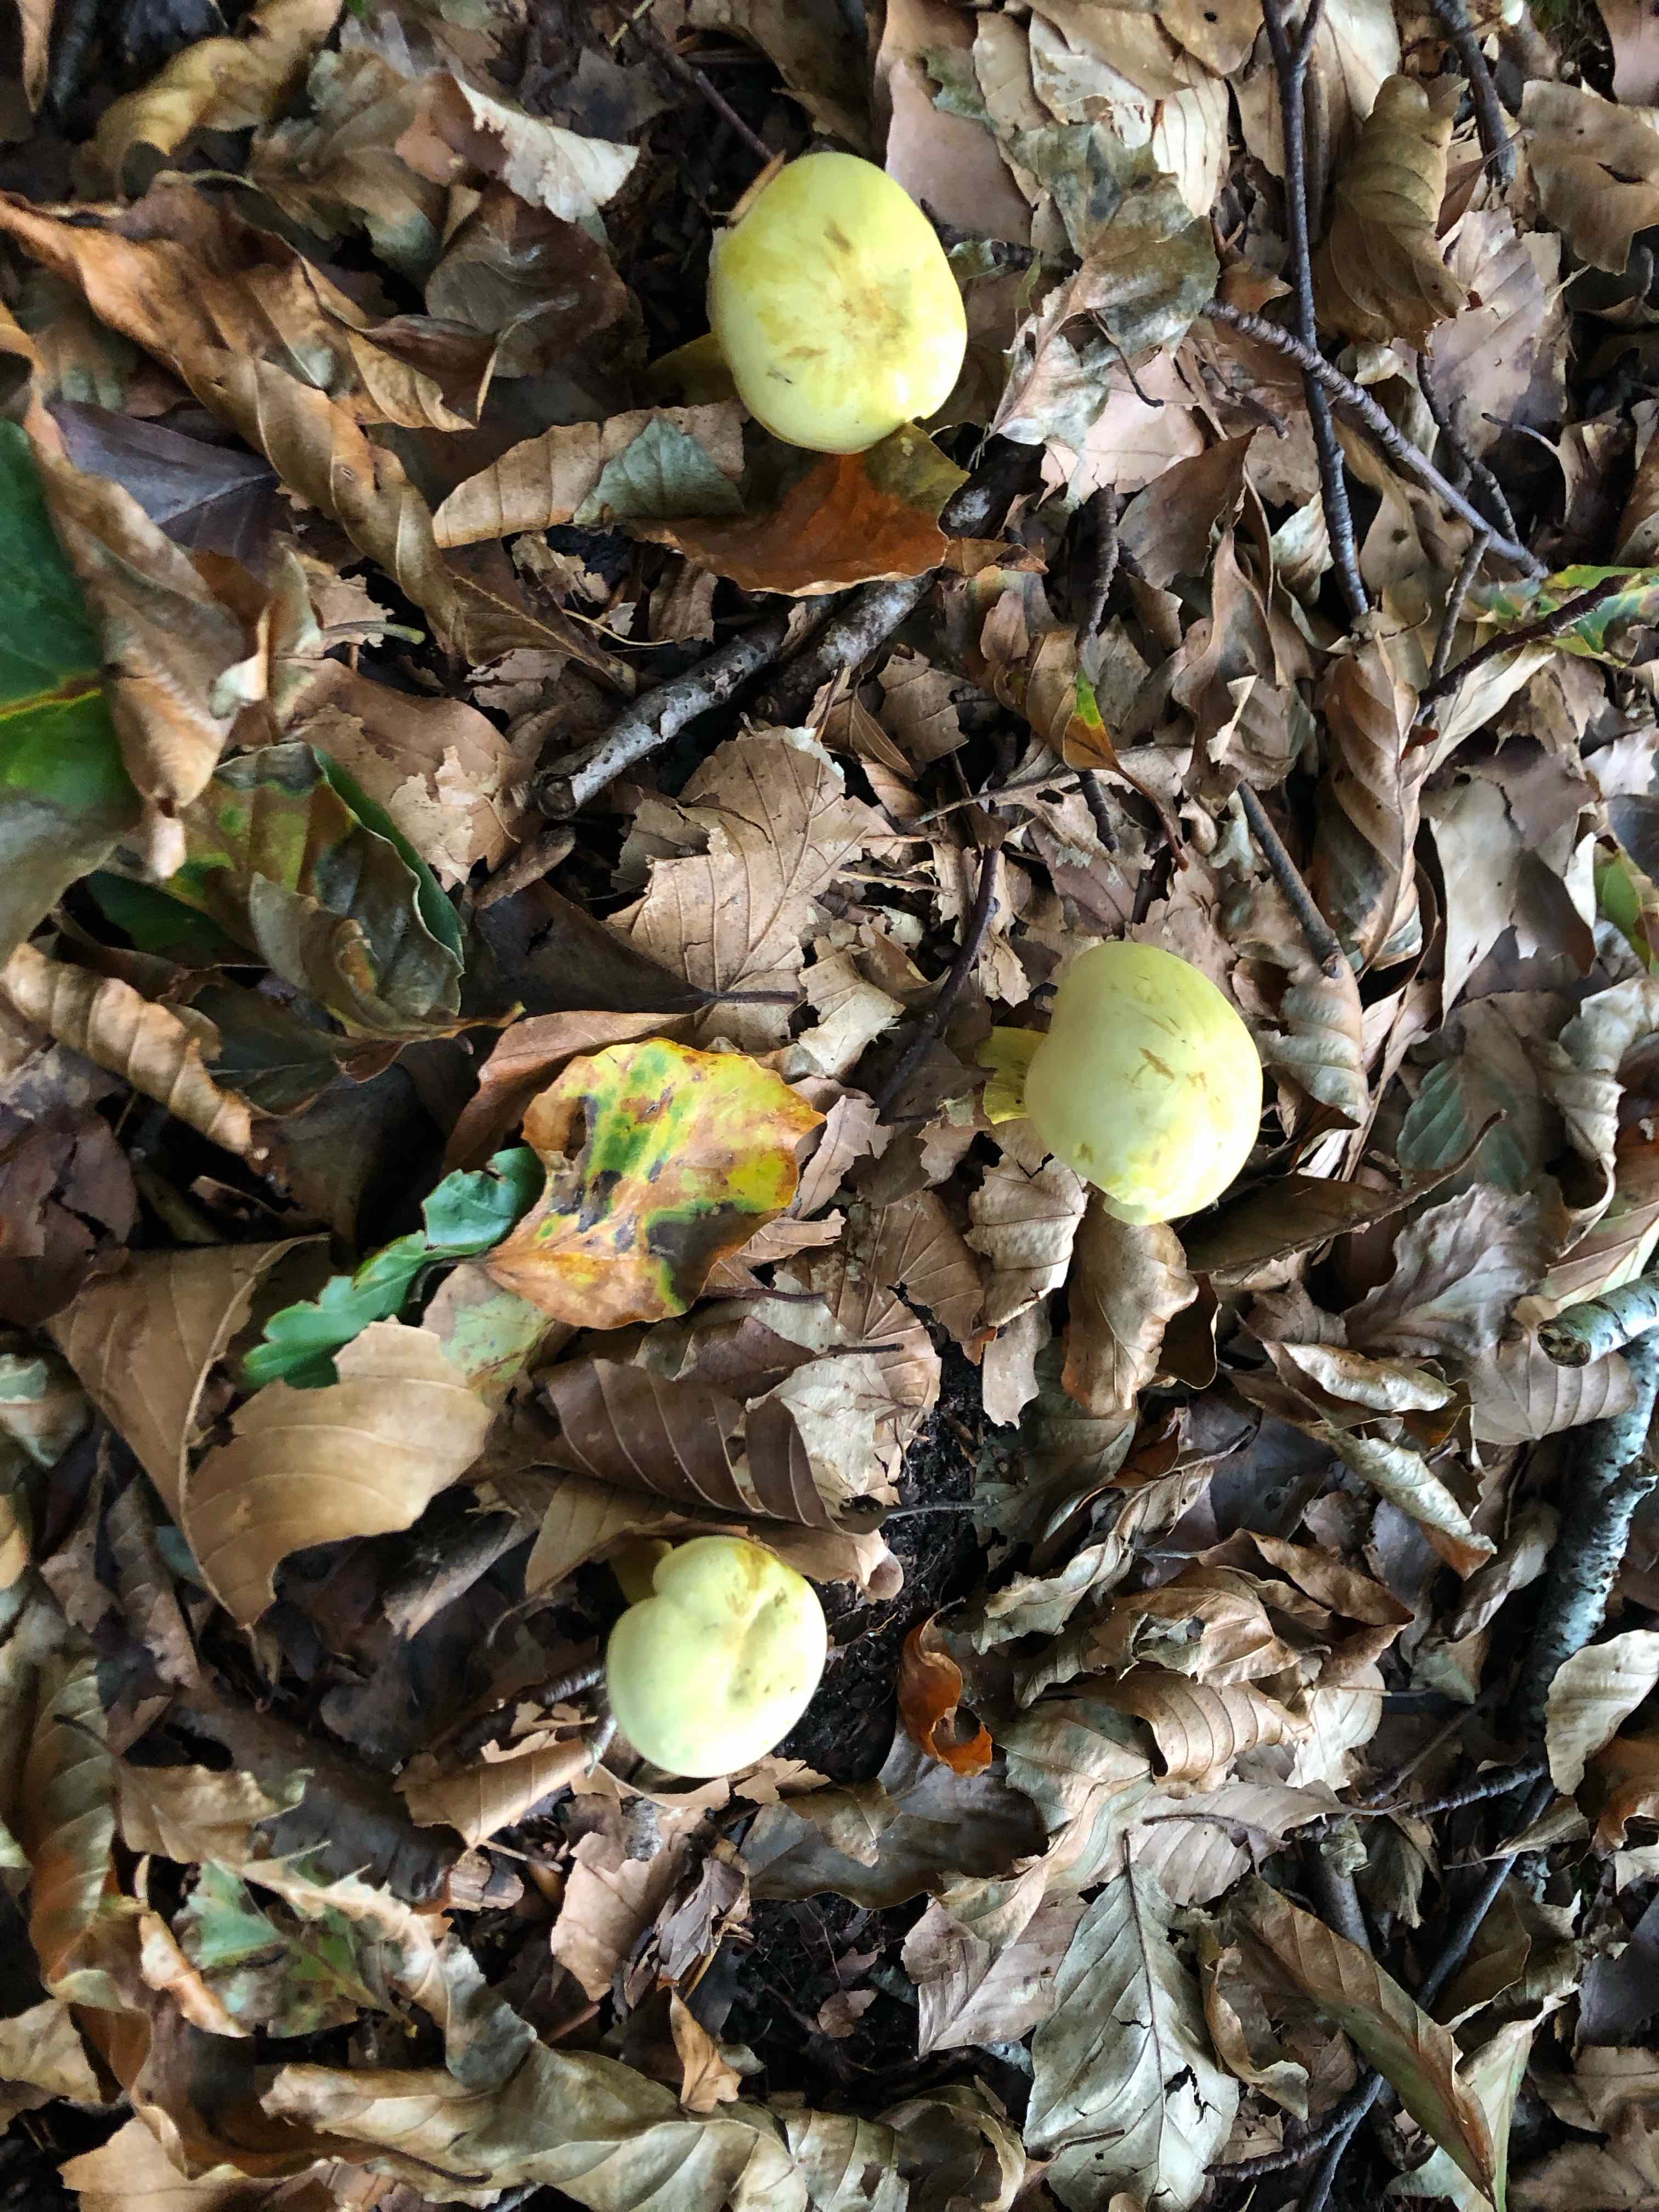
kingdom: Fungi
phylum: Basidiomycota
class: Agaricomycetes
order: Agaricales
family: Tricholomataceae
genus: Tricholoma
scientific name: Tricholoma sulphureum
